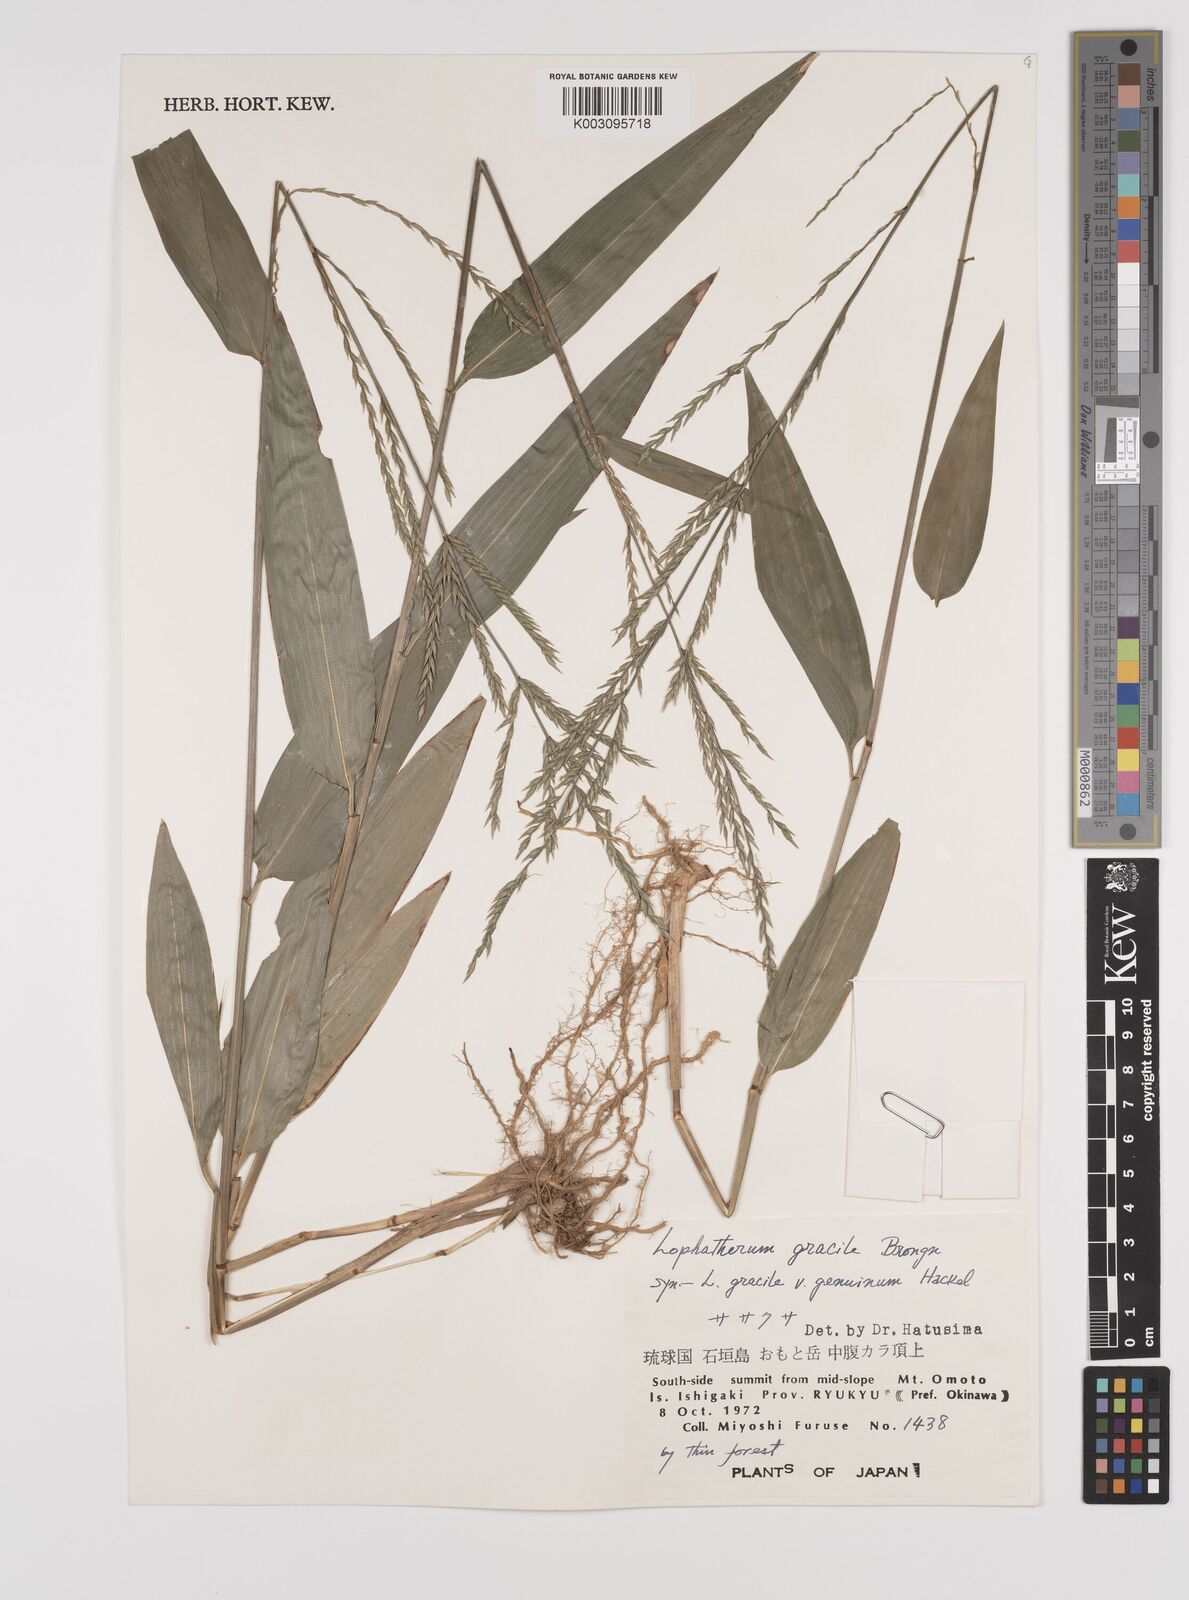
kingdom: Plantae
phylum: Tracheophyta
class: Liliopsida
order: Poales
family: Poaceae
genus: Lophatherum
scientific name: Lophatherum gracile
